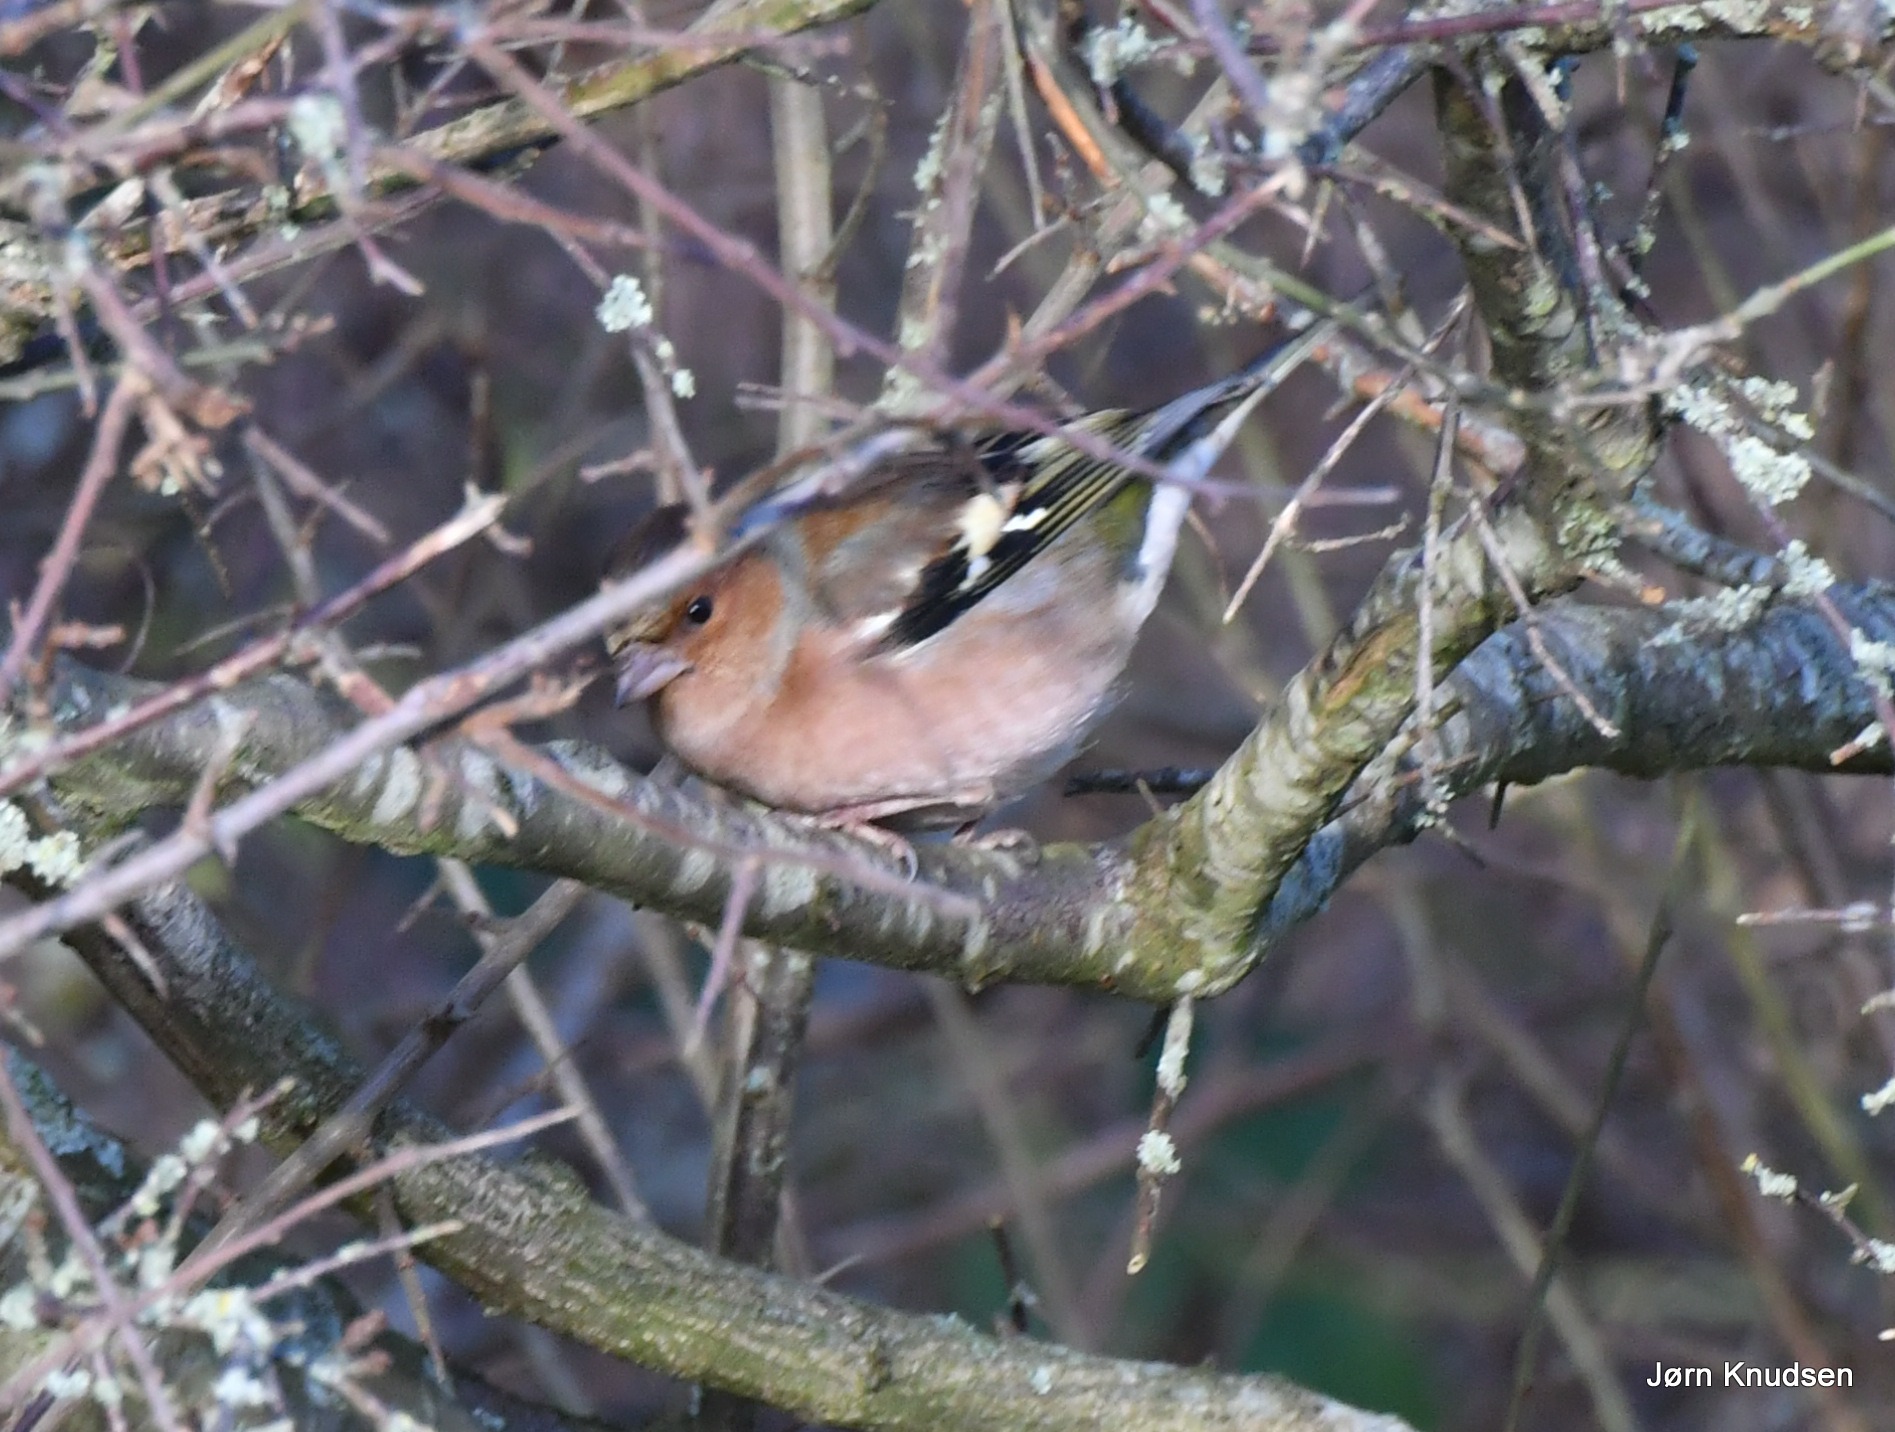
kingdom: Animalia
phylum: Chordata
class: Aves
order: Passeriformes
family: Fringillidae
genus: Fringilla
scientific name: Fringilla coelebs
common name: Bogfinke
